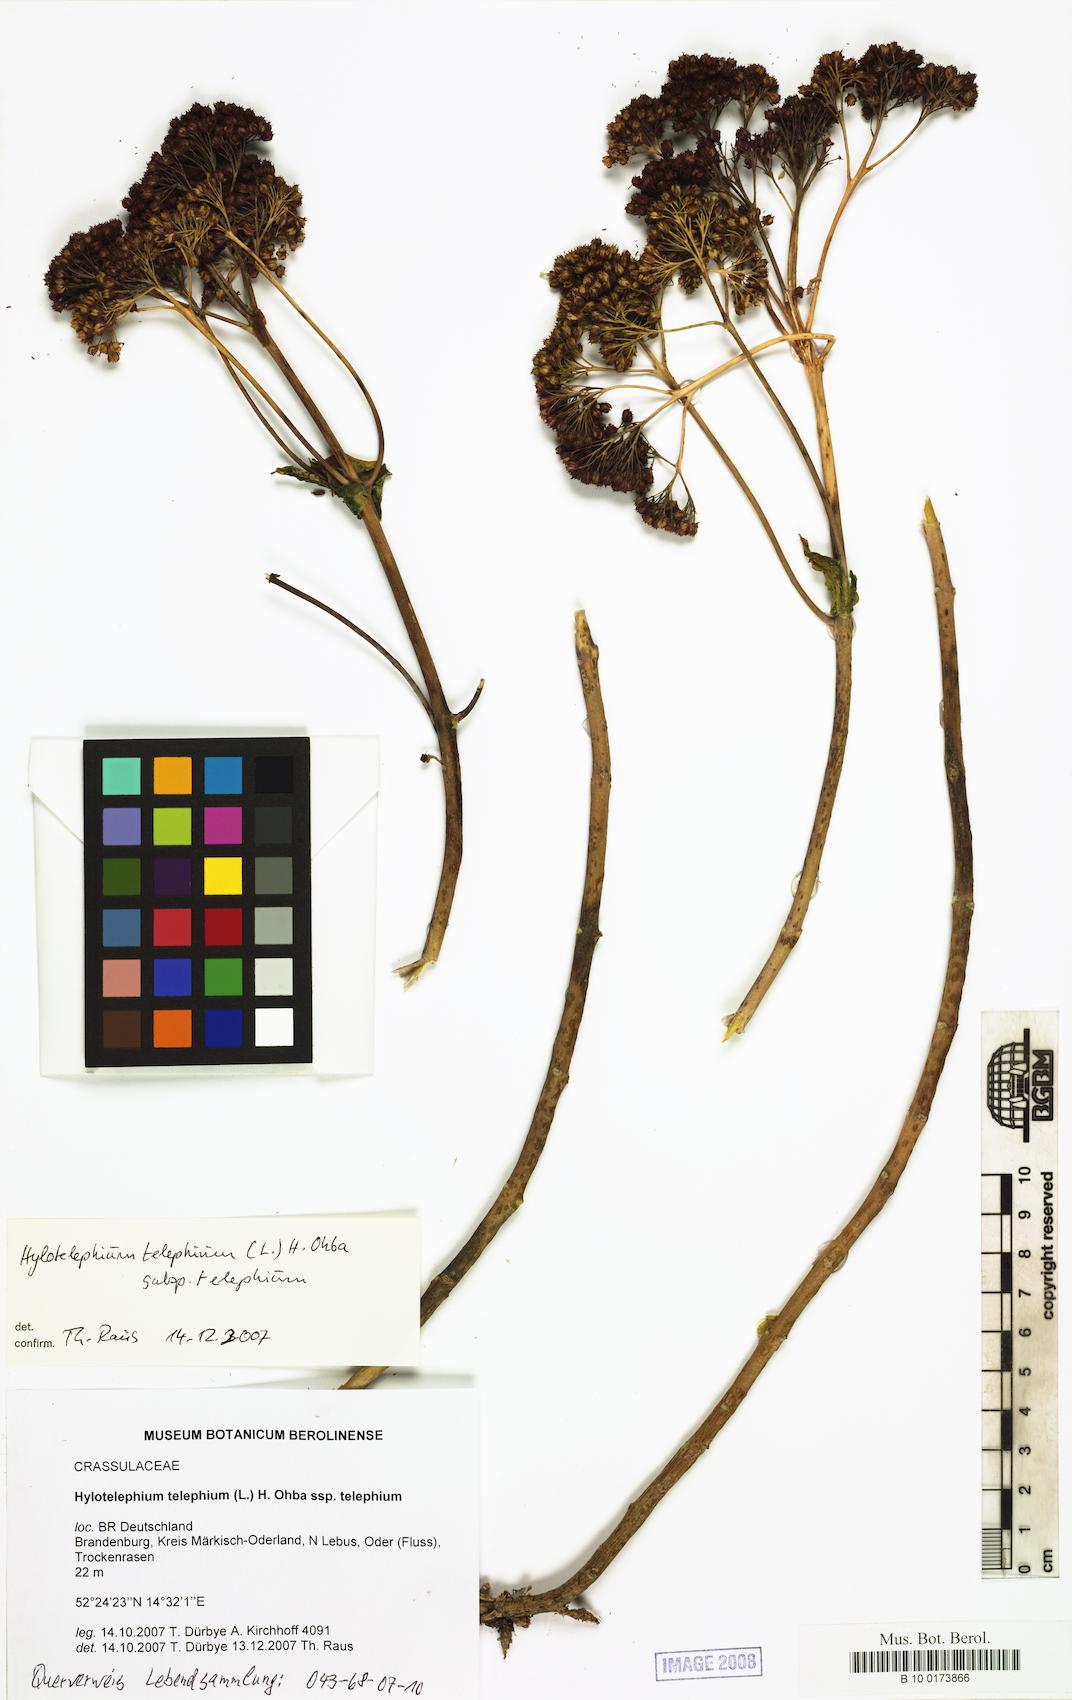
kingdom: Plantae
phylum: Tracheophyta
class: Magnoliopsida
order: Saxifragales
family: Crassulaceae
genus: Hylotelephium
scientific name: Hylotelephium telephium
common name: Live-forever
